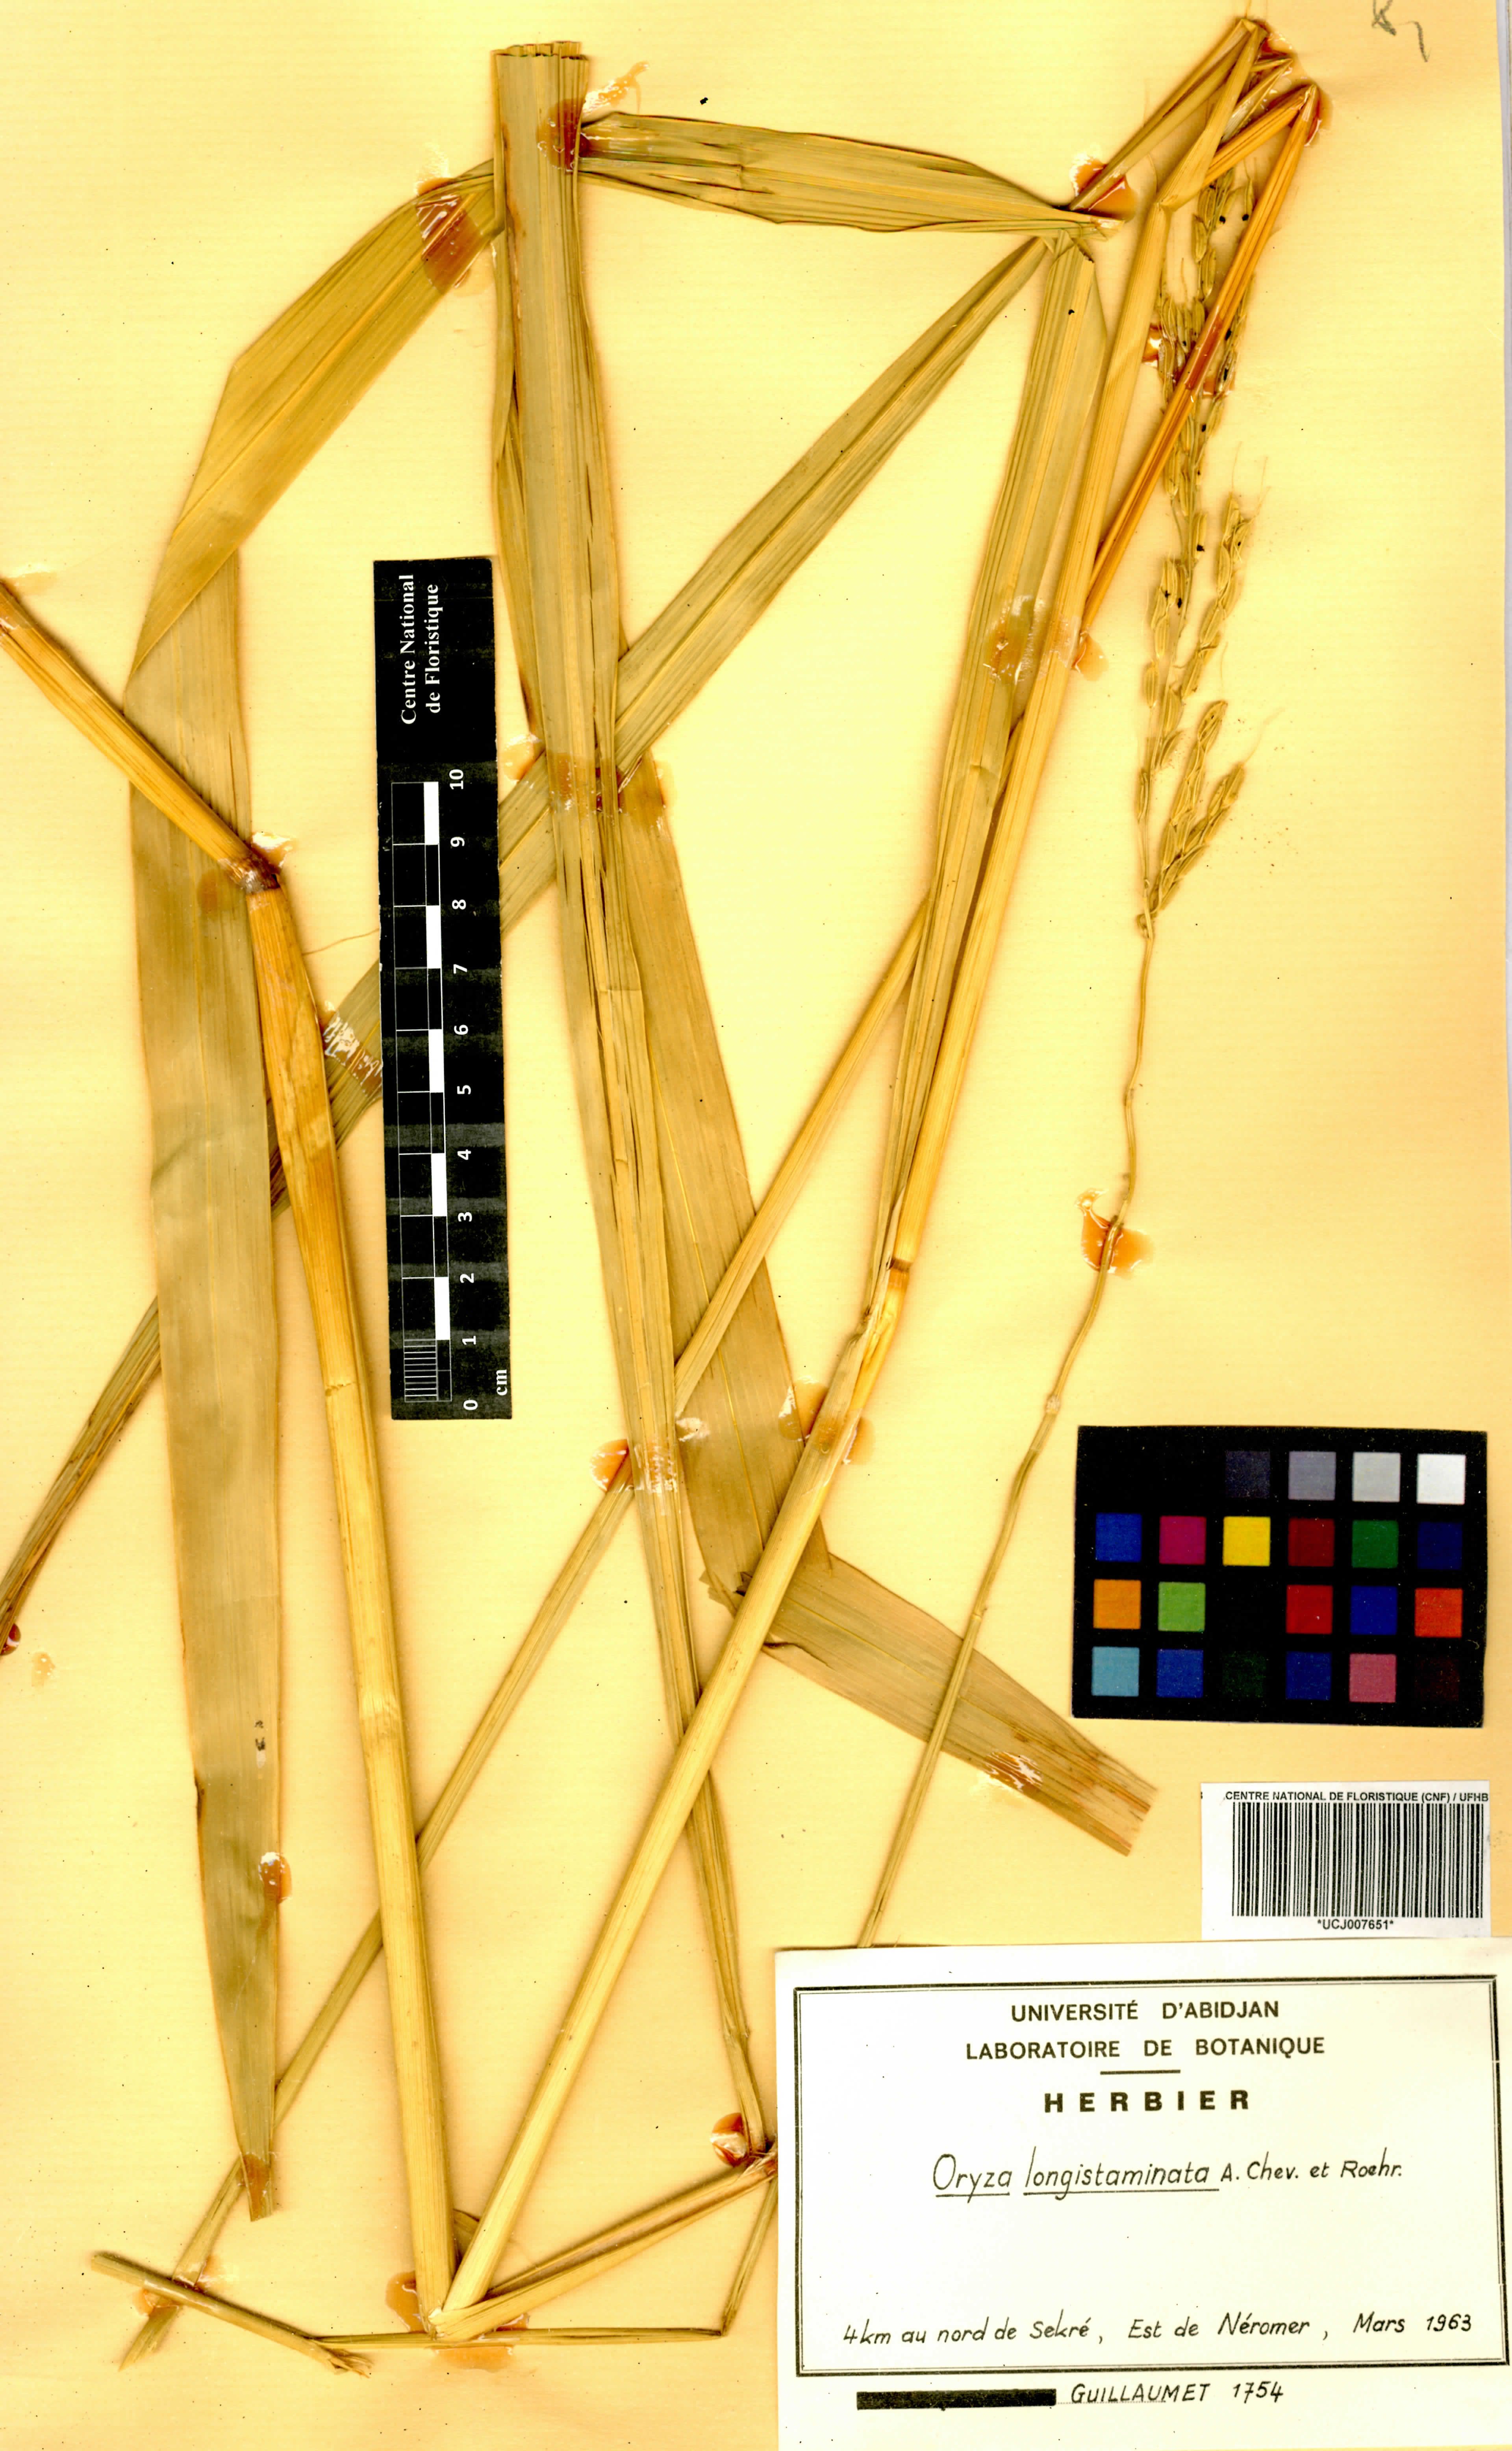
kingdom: Plantae
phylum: Tracheophyta
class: Liliopsida
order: Poales
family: Poaceae
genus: Oryza
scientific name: Oryza longistaminata
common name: Red rice
